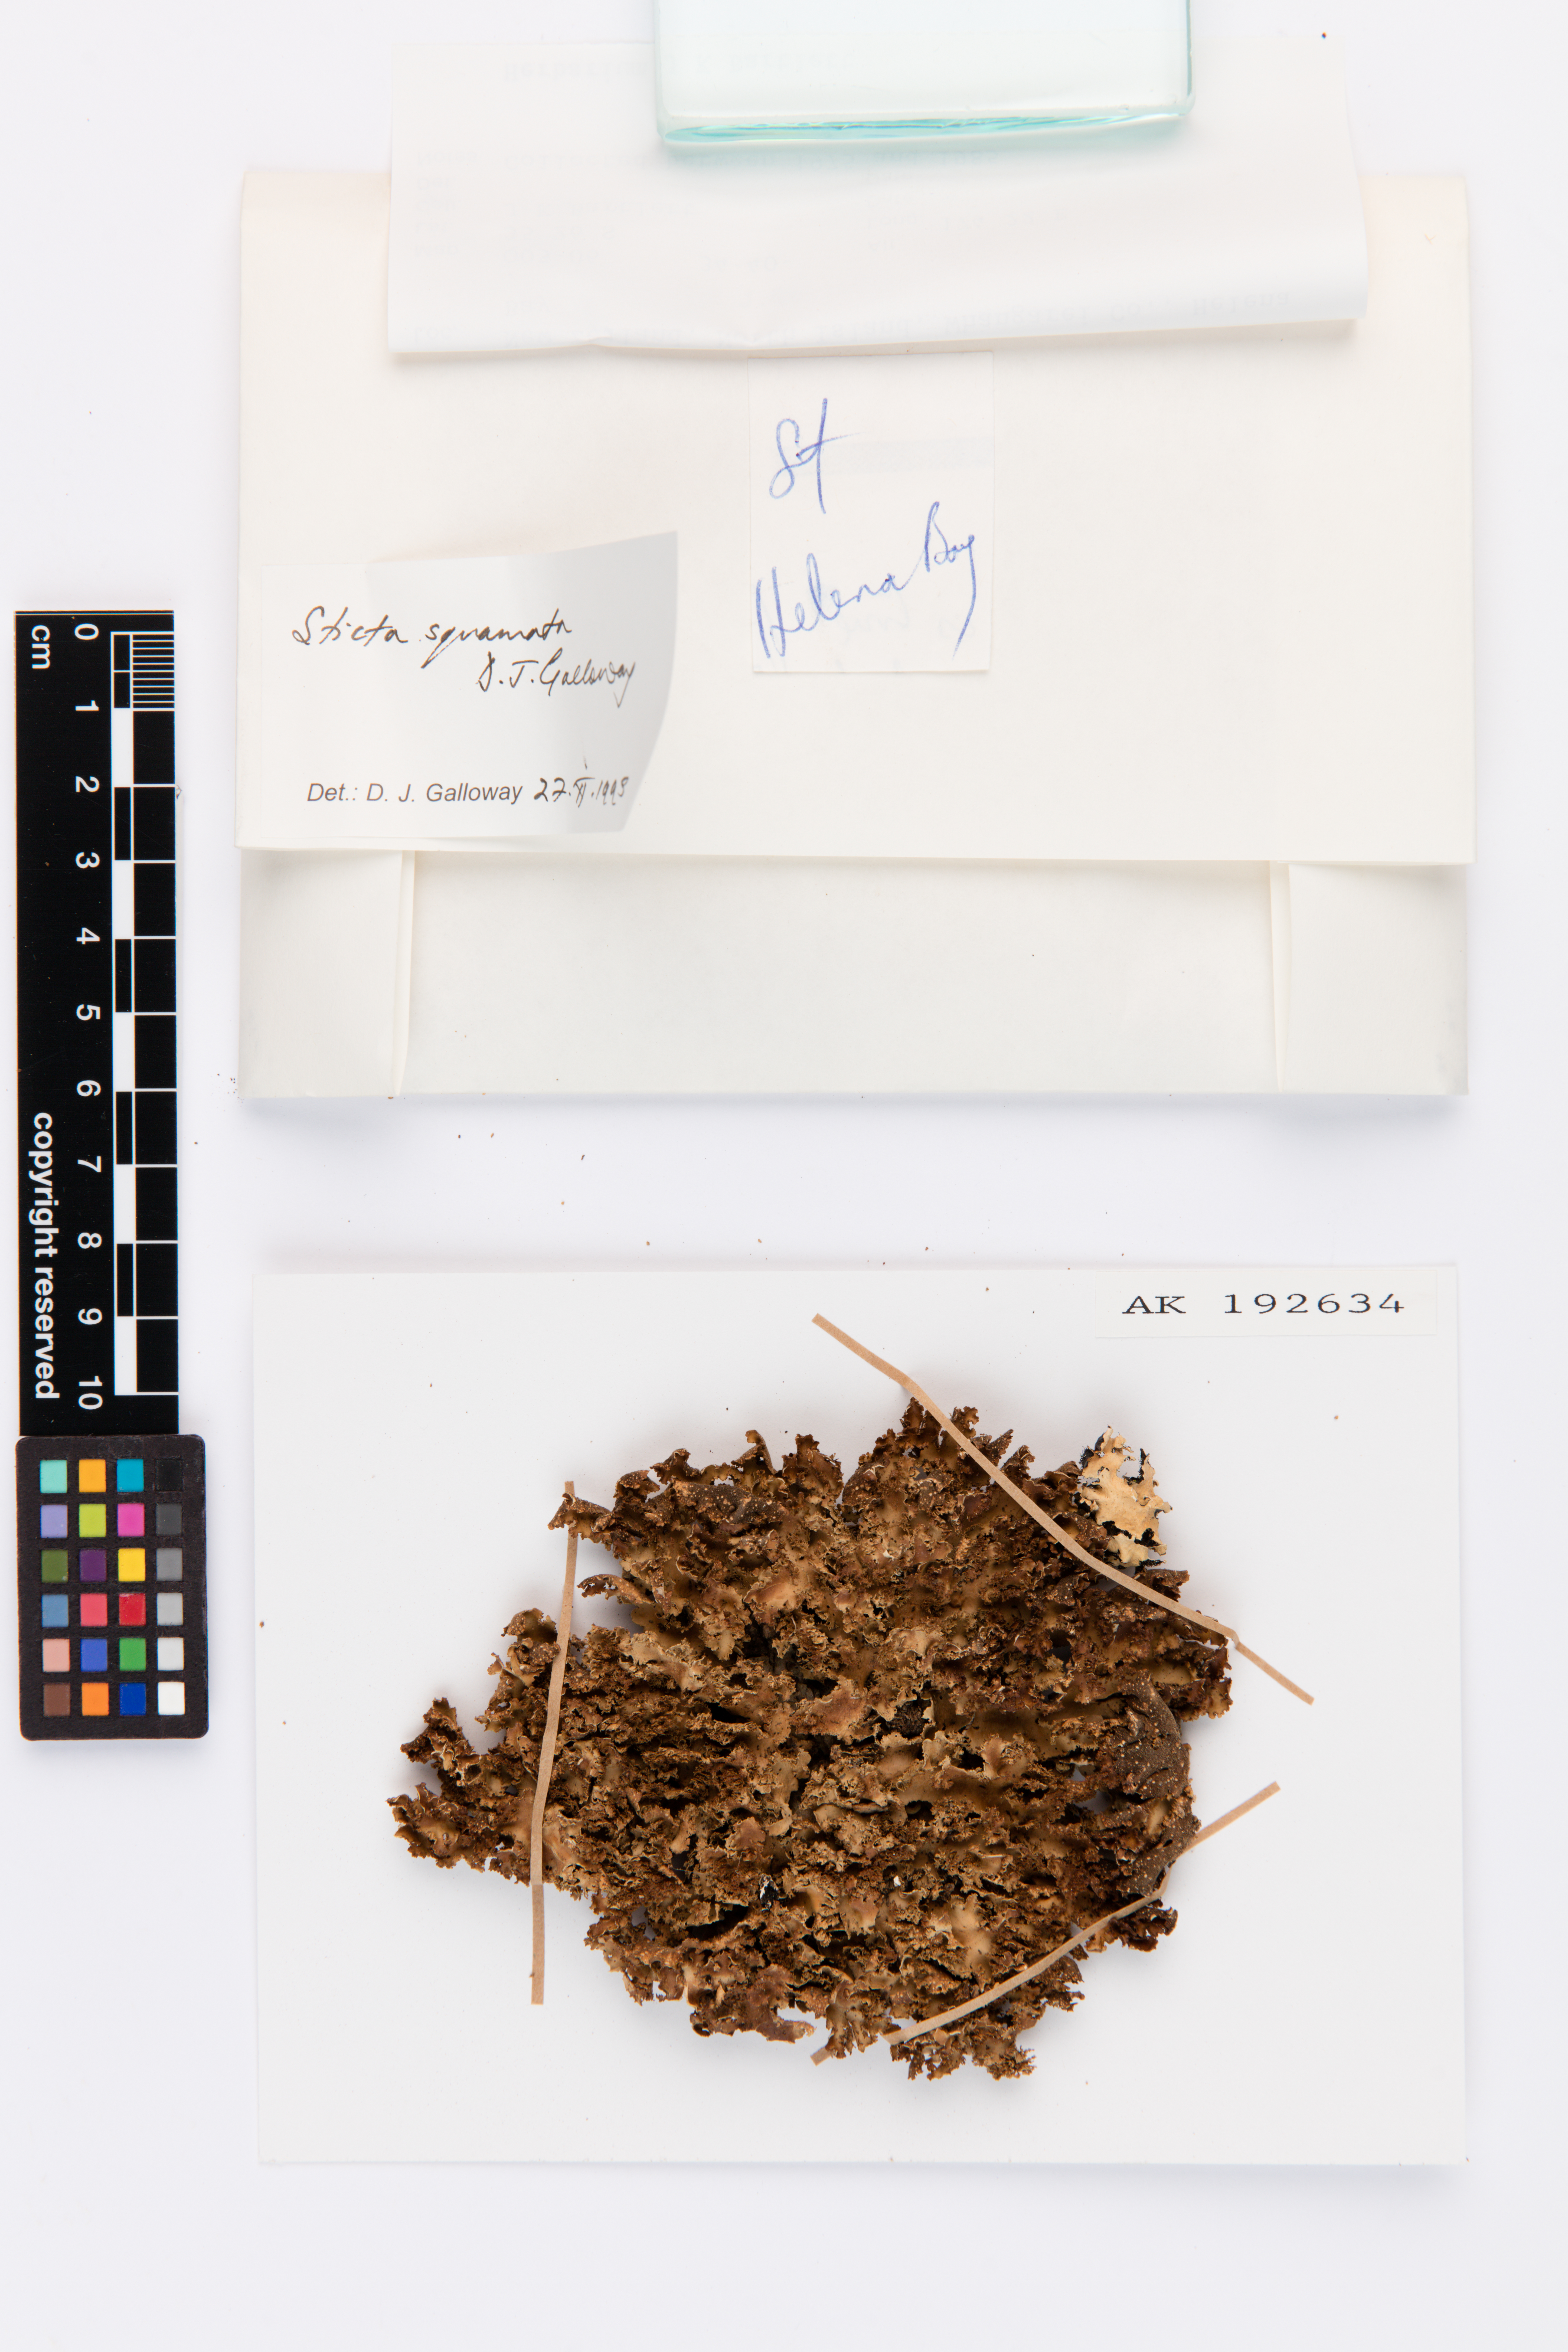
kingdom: Fungi
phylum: Ascomycota
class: Lecanoromycetes
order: Peltigerales
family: Lobariaceae
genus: Sticta
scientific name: Sticta squamata
